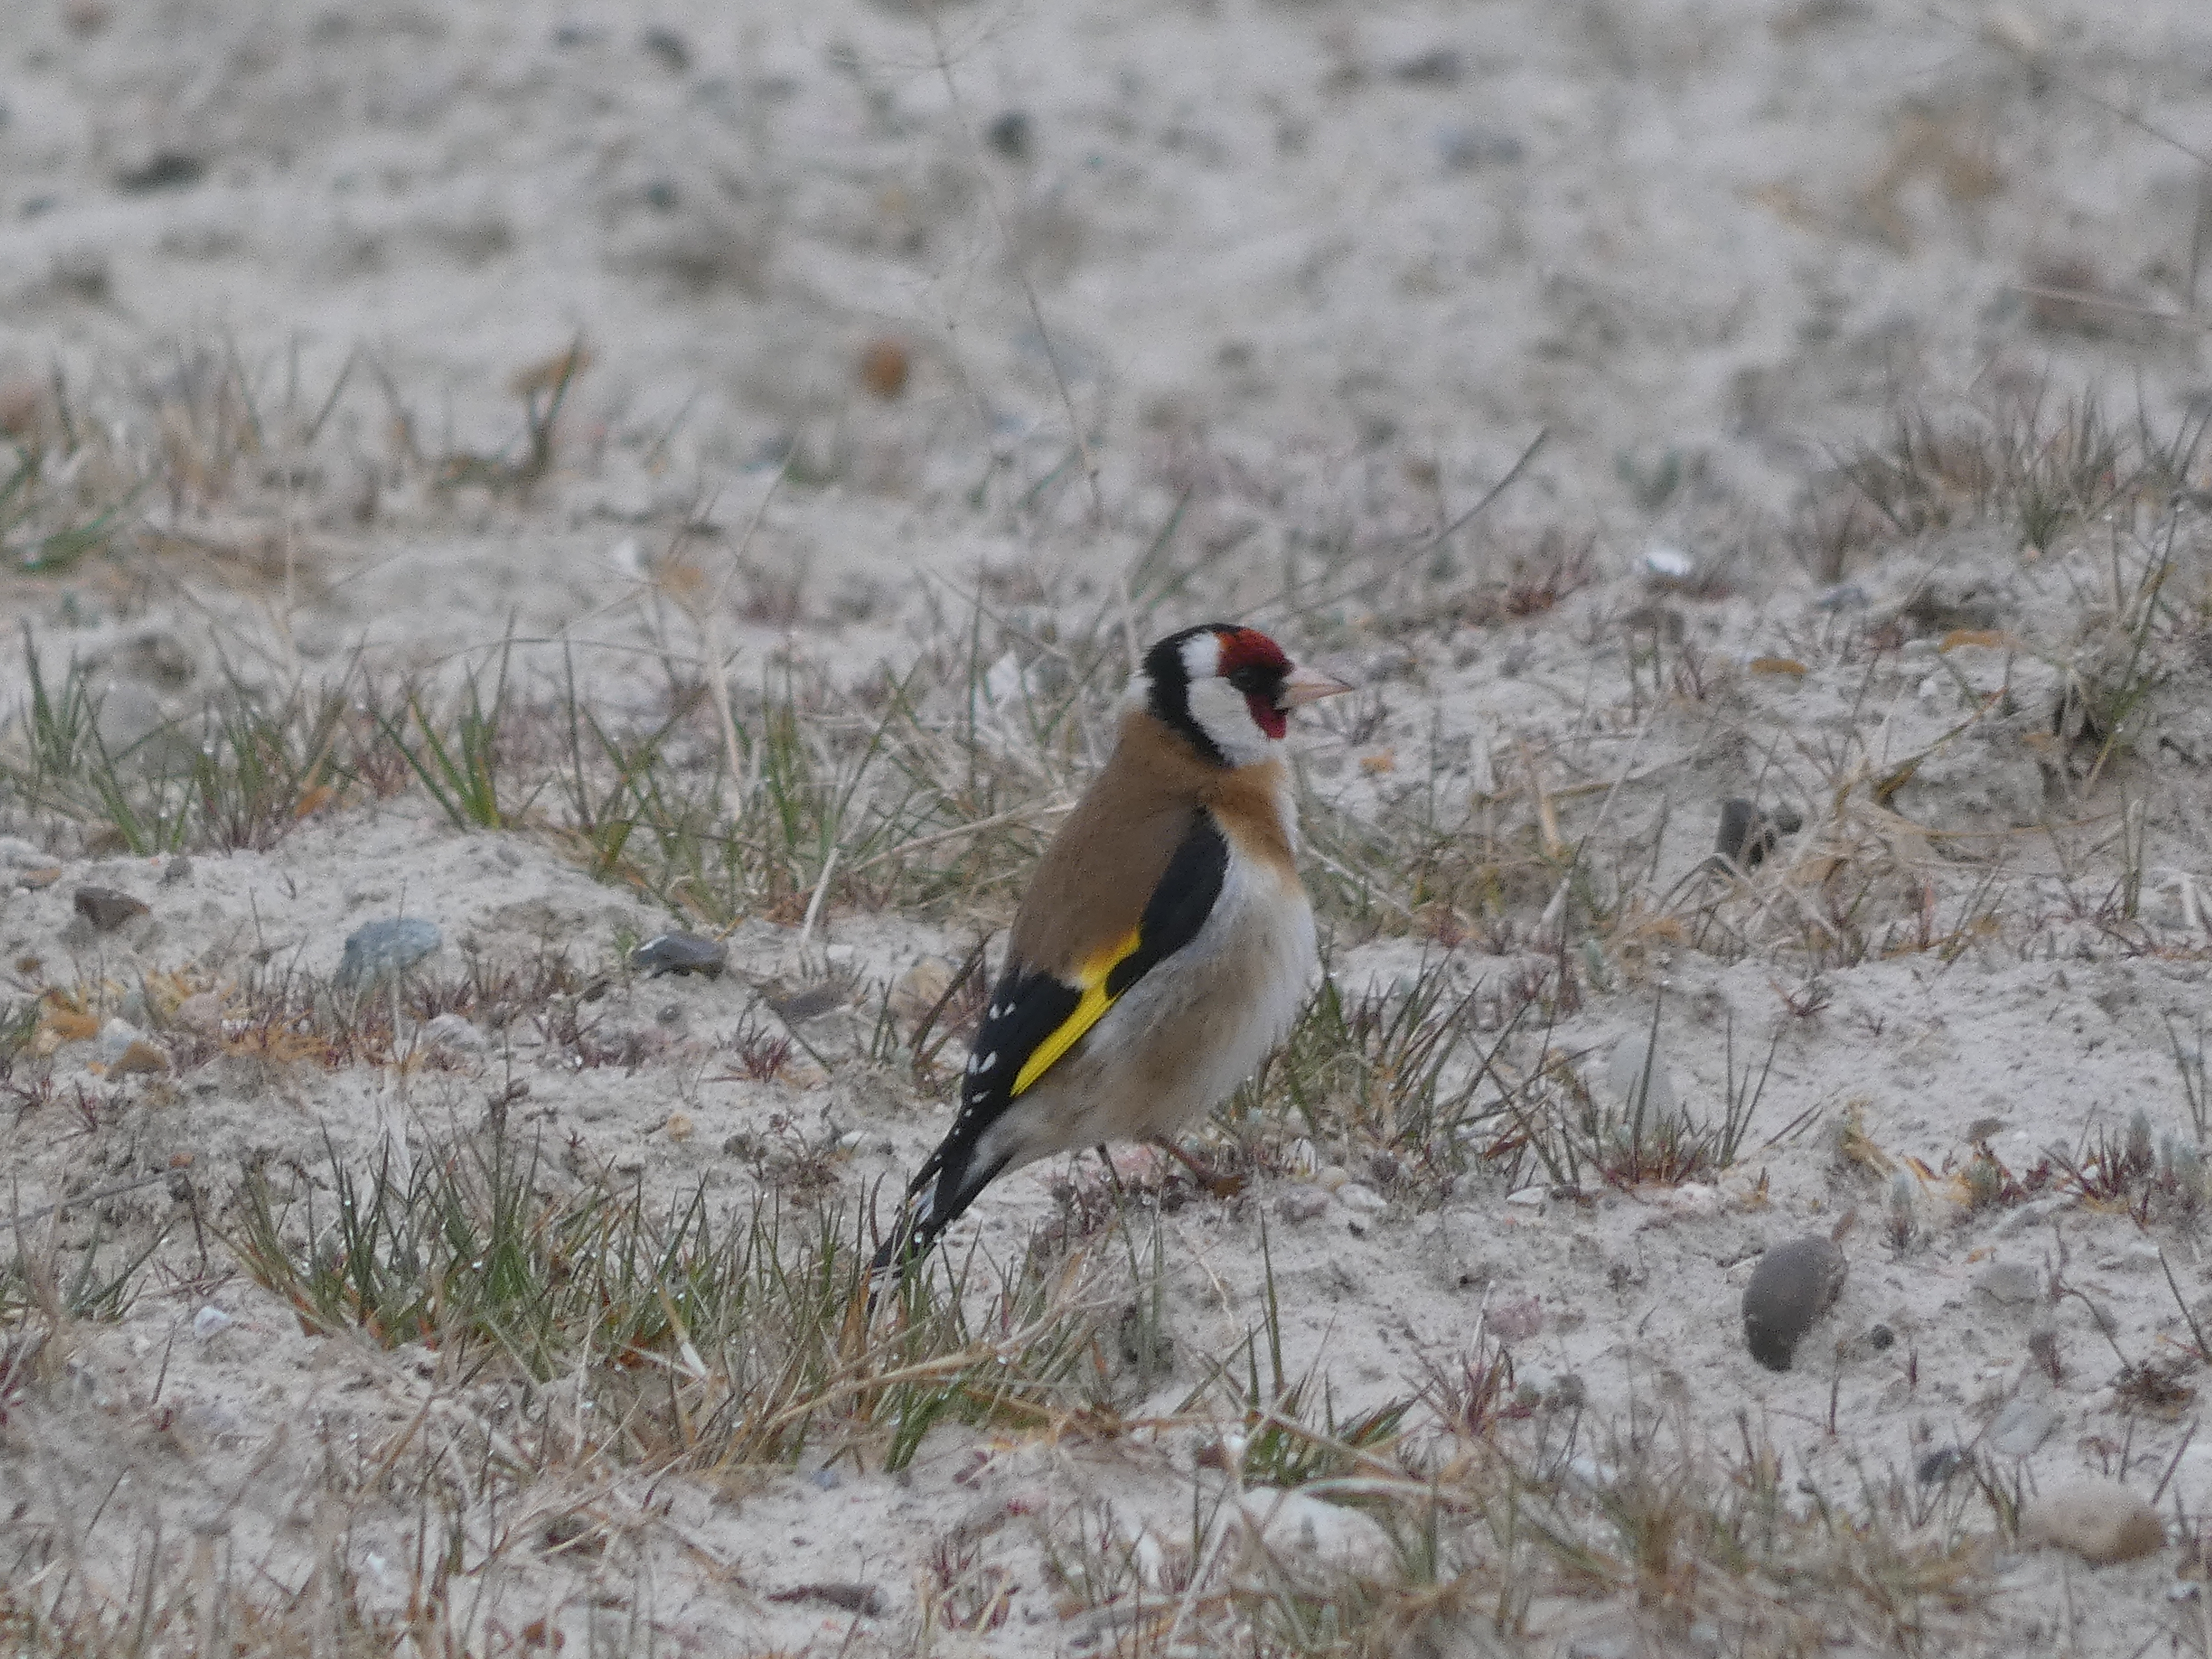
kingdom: Animalia
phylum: Chordata
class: Aves
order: Passeriformes
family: Fringillidae
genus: Carduelis
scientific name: Carduelis carduelis
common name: Stillits
